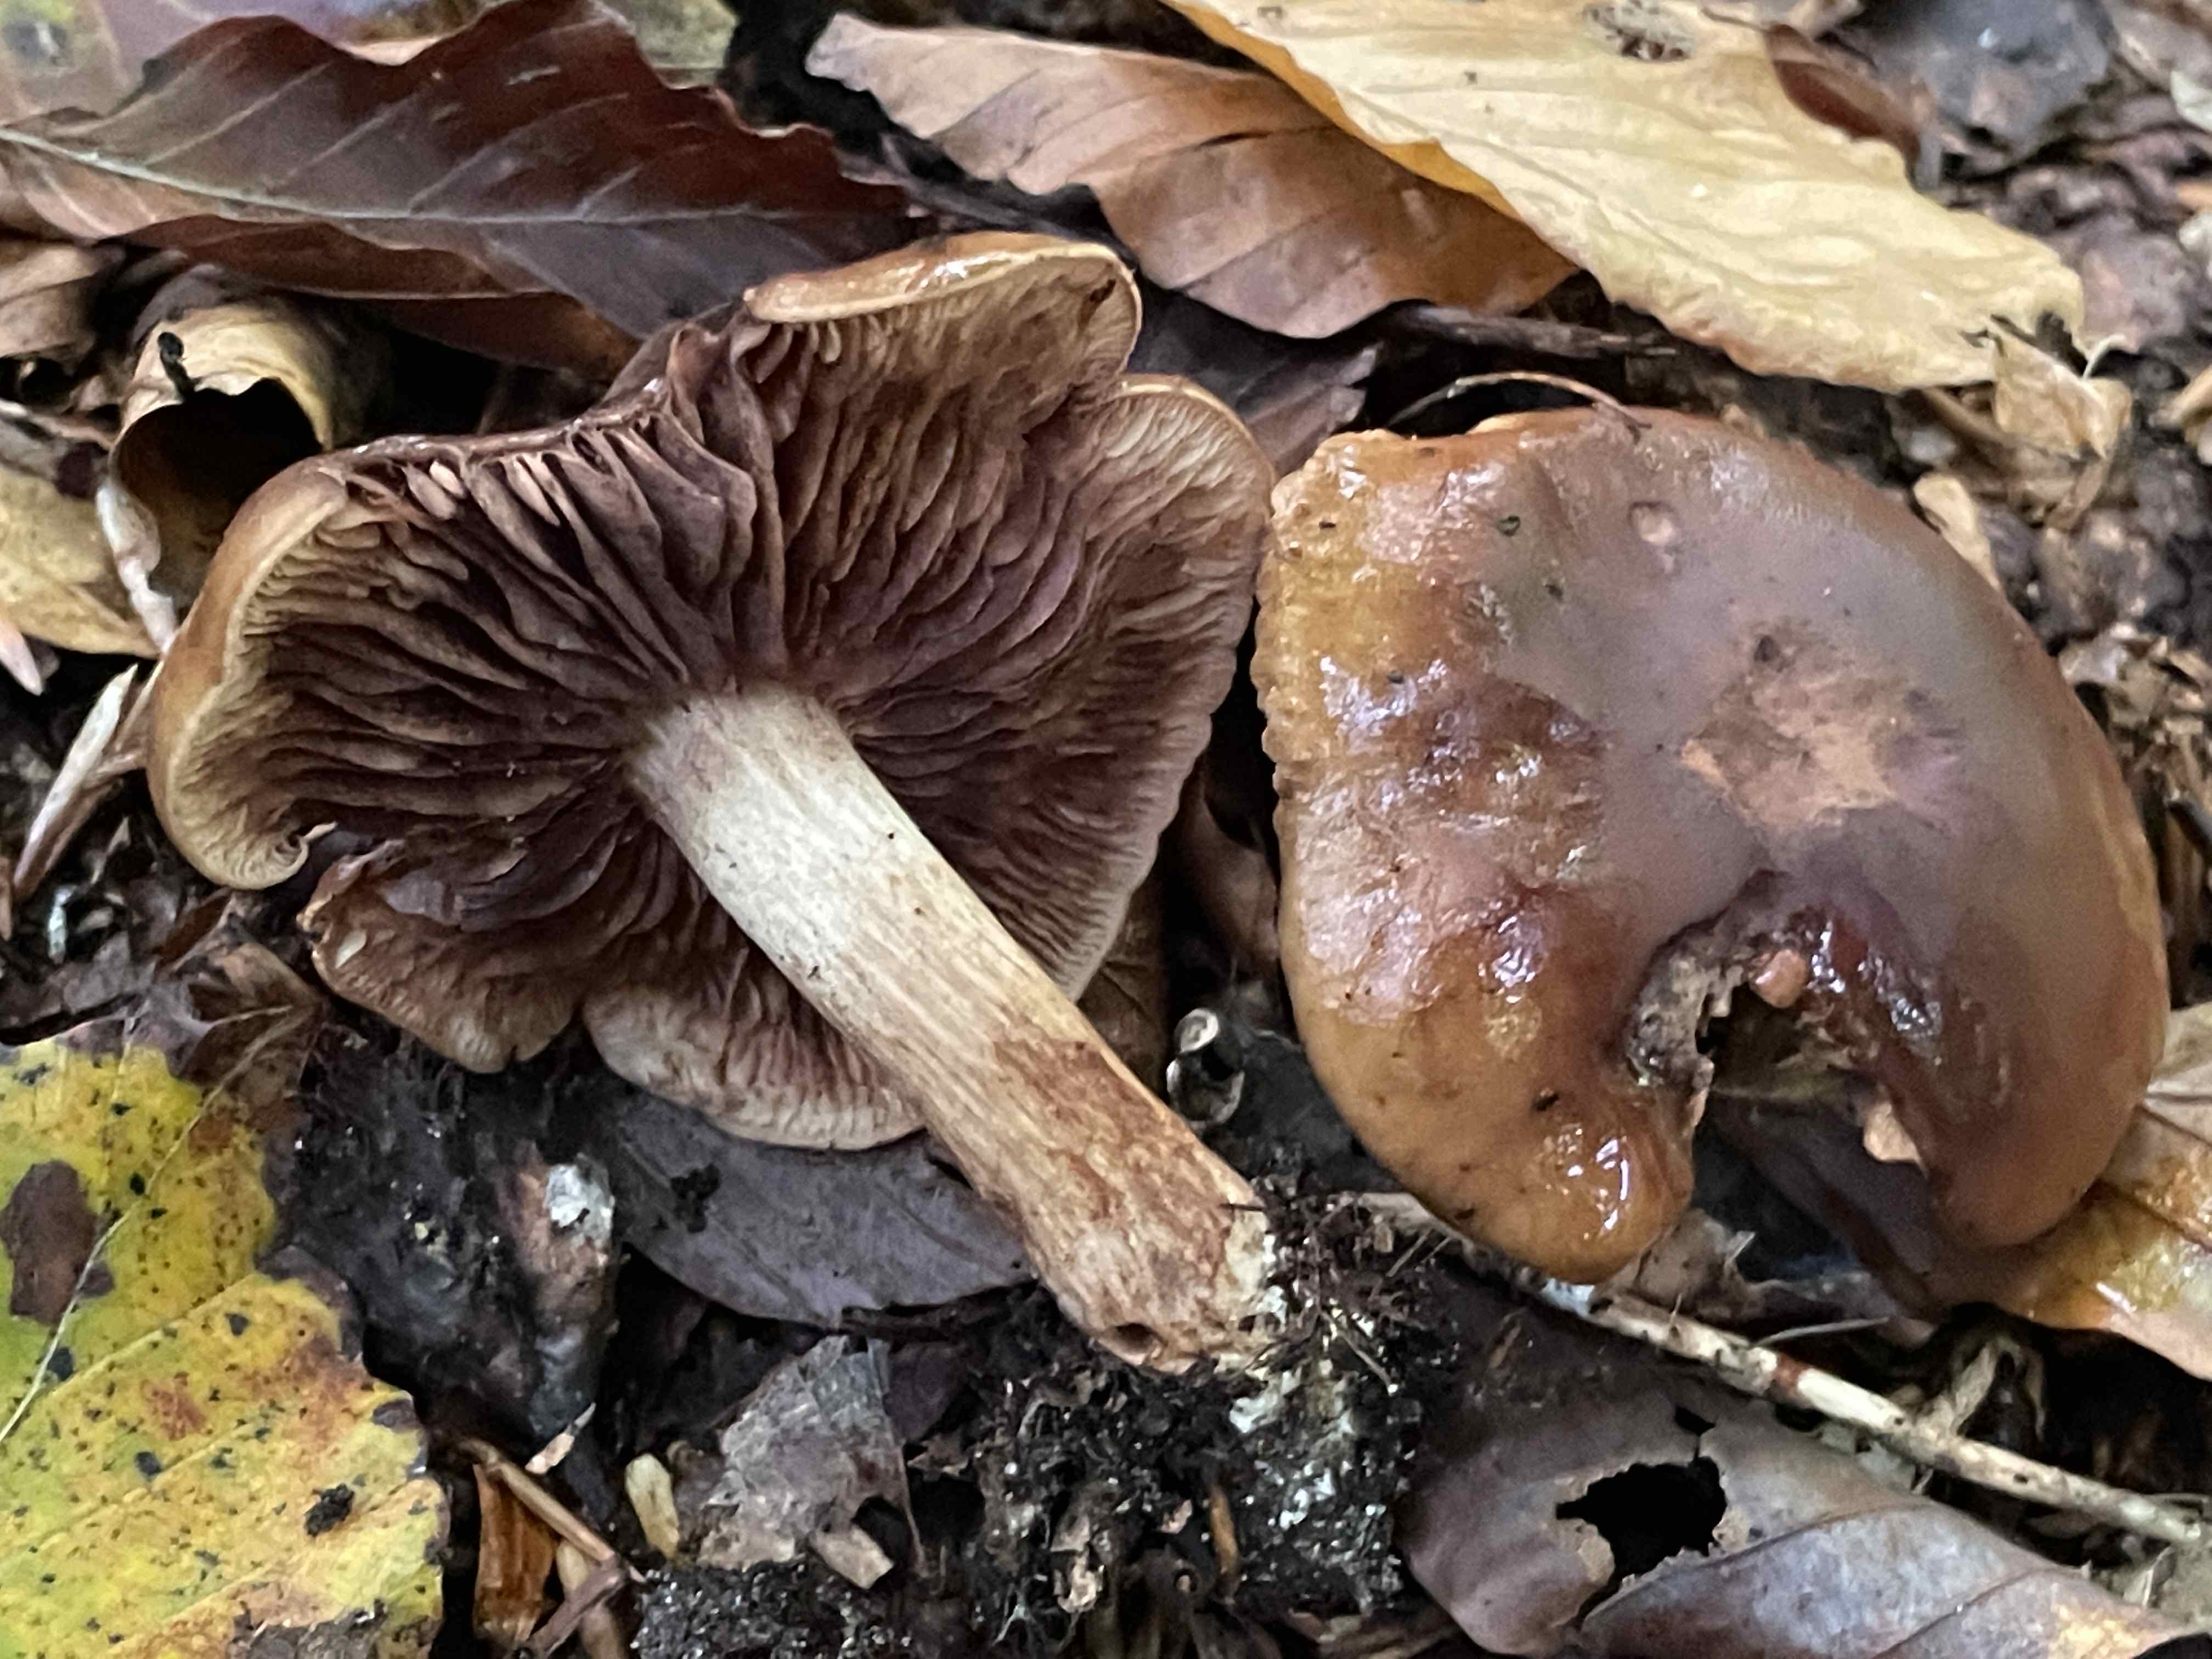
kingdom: Fungi
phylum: Basidiomycota
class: Agaricomycetes
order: Agaricales
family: Tricholomataceae
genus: Tricholoma
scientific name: Tricholoma ustale
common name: sveden ridderhat
